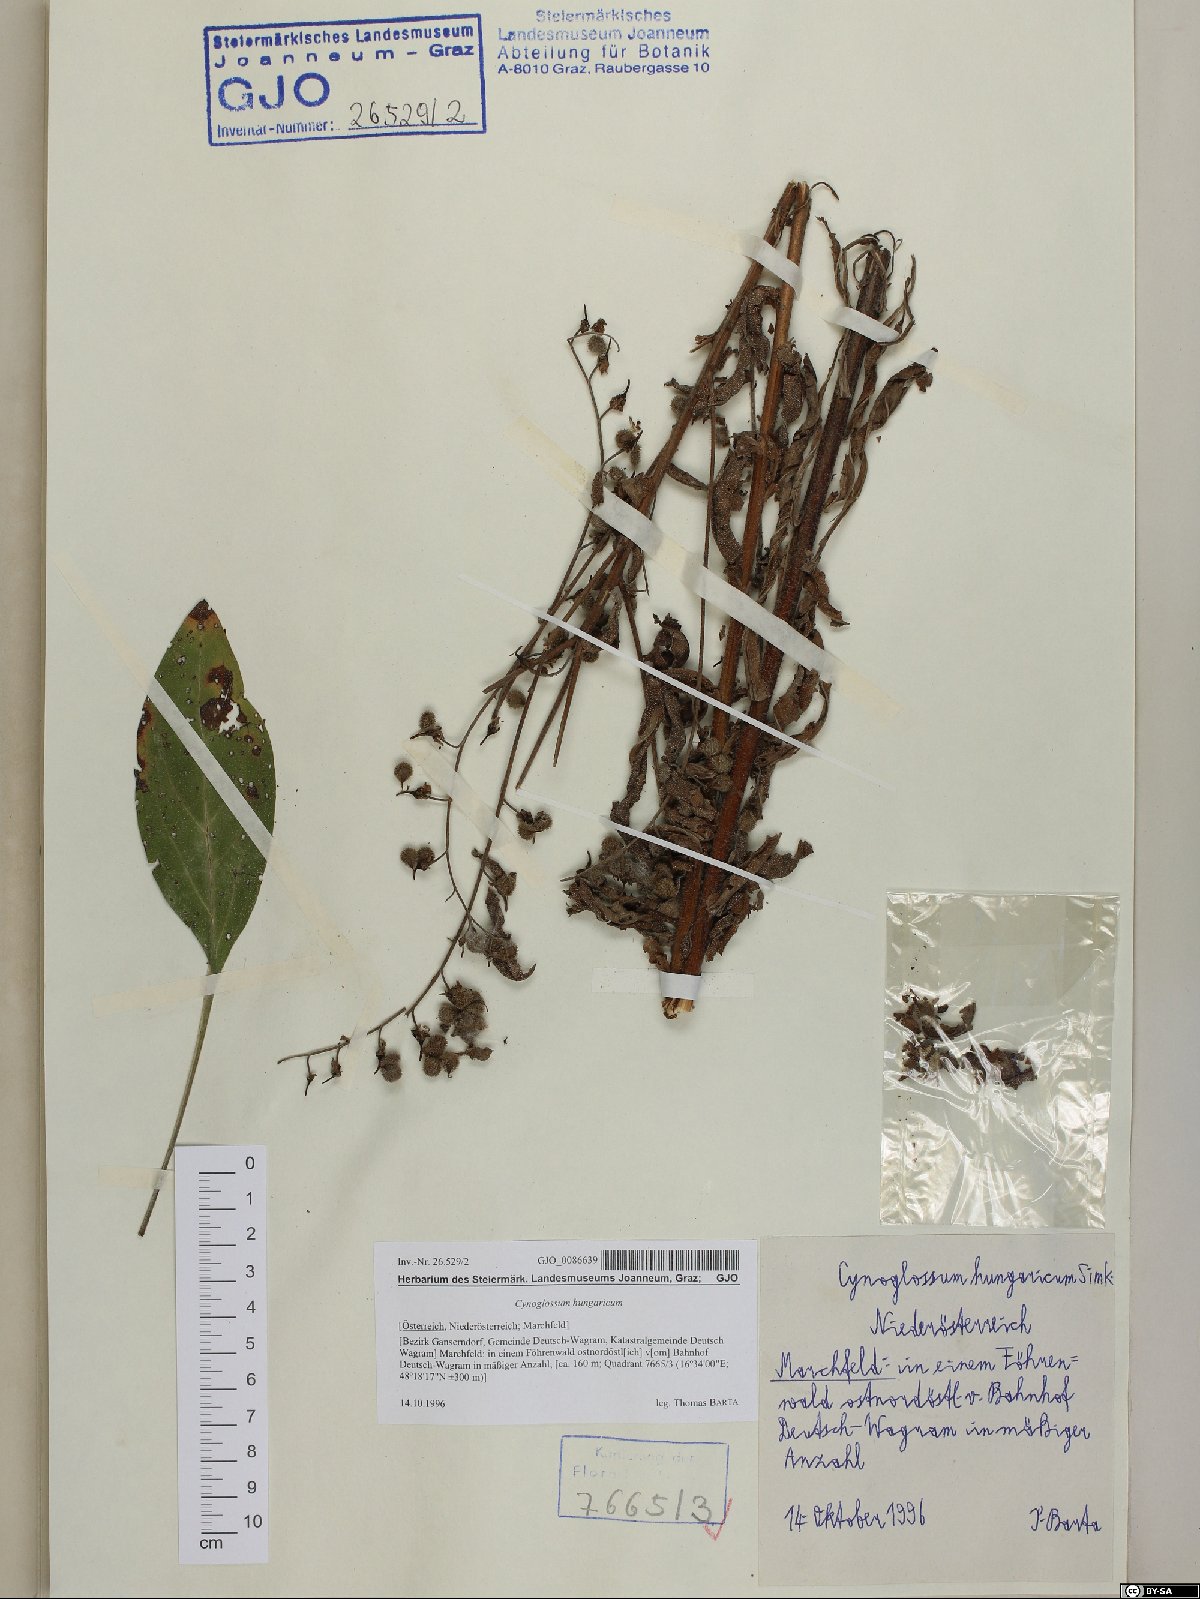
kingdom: Plantae
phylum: Tracheophyta
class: Magnoliopsida
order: Boraginales
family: Boraginaceae
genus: Cynoglossum
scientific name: Cynoglossum montanum
